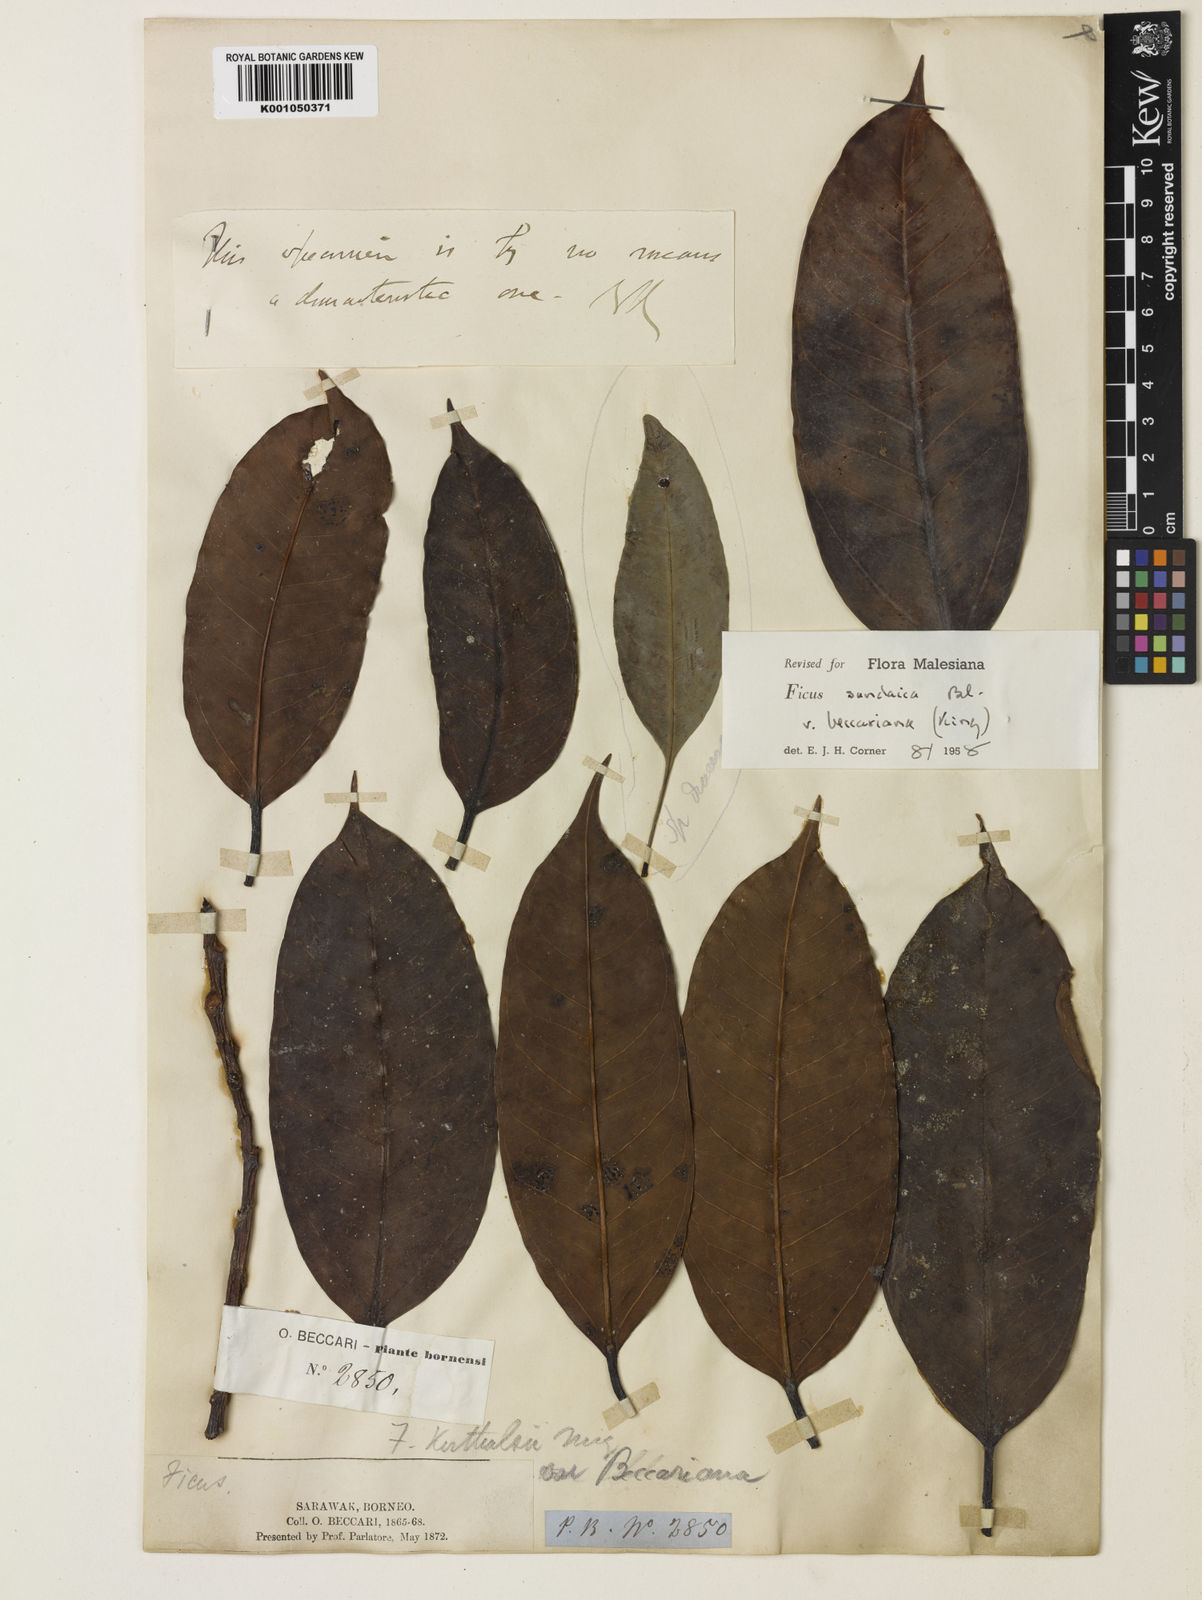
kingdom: Plantae
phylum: Tracheophyta
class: Magnoliopsida
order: Rosales
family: Moraceae
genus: Ficus
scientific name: Ficus sundaica
